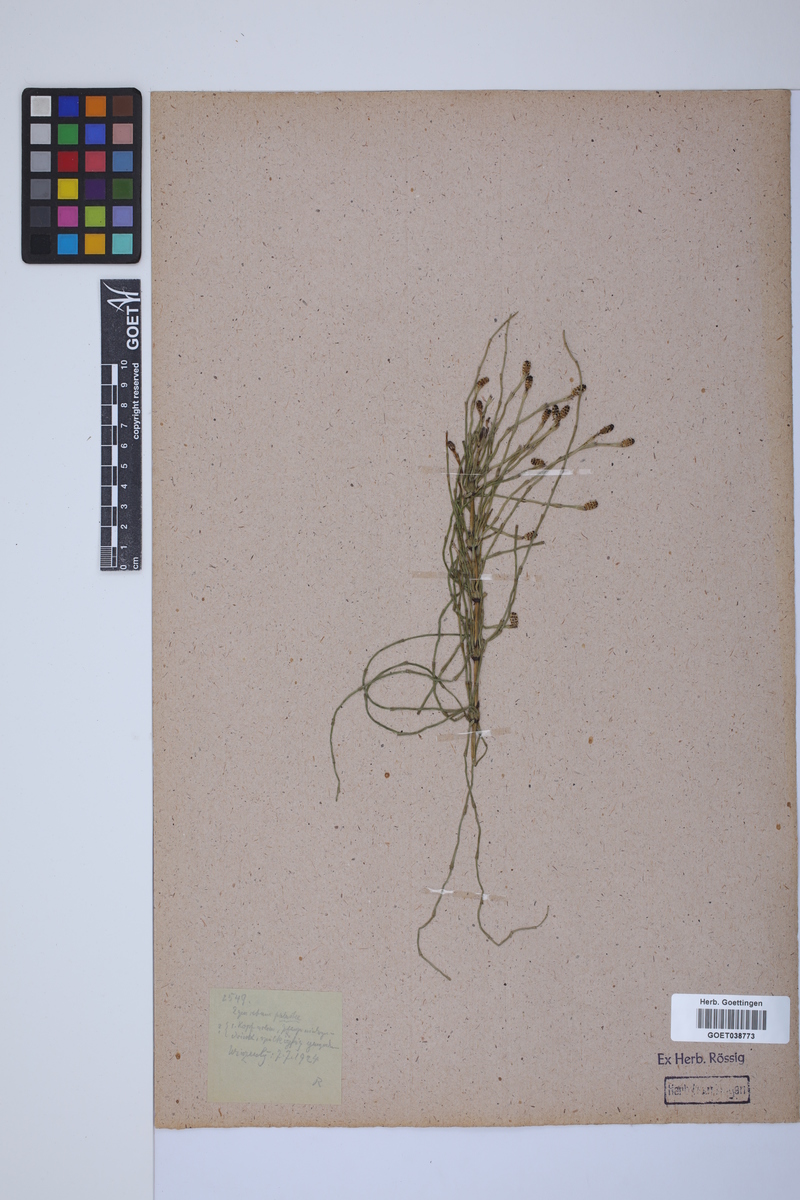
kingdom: Plantae
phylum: Tracheophyta
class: Polypodiopsida
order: Equisetales
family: Equisetaceae
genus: Equisetum
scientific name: Equisetum palustre
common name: Marsh horsetail
